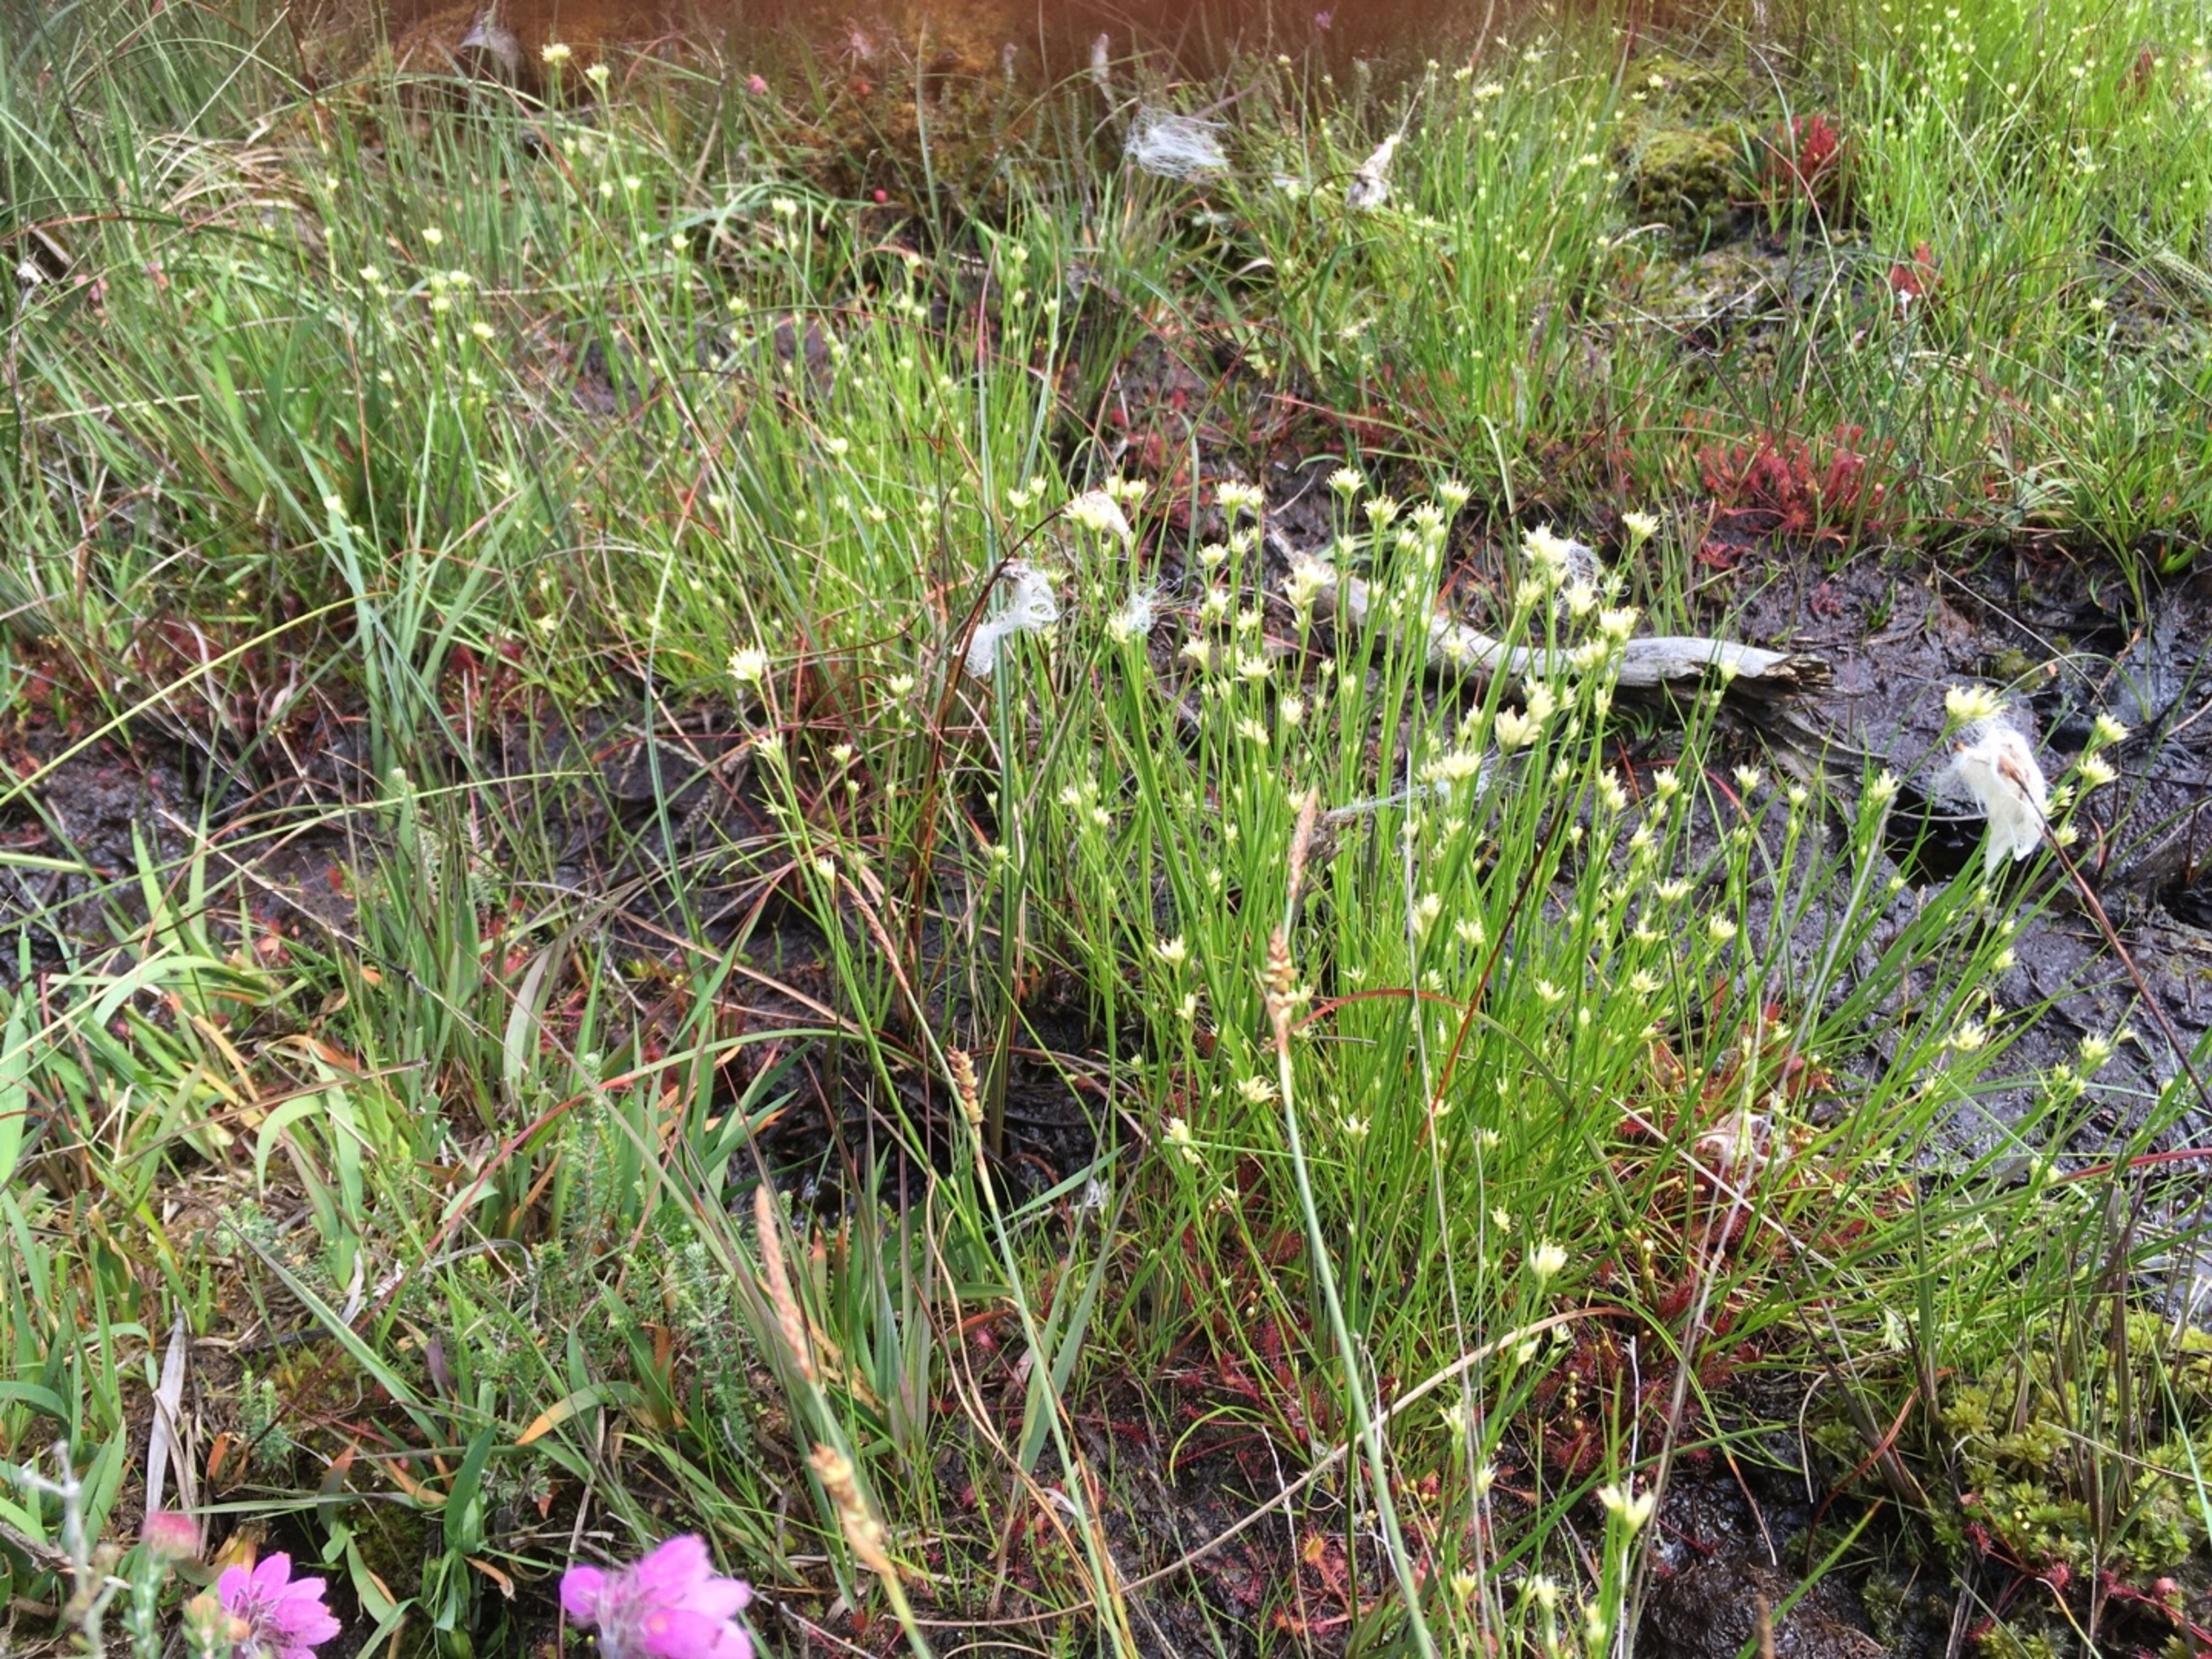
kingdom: Plantae
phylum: Tracheophyta
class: Liliopsida
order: Poales
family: Cyperaceae
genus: Rhynchospora
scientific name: Rhynchospora alba
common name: Hvid næbfrø
